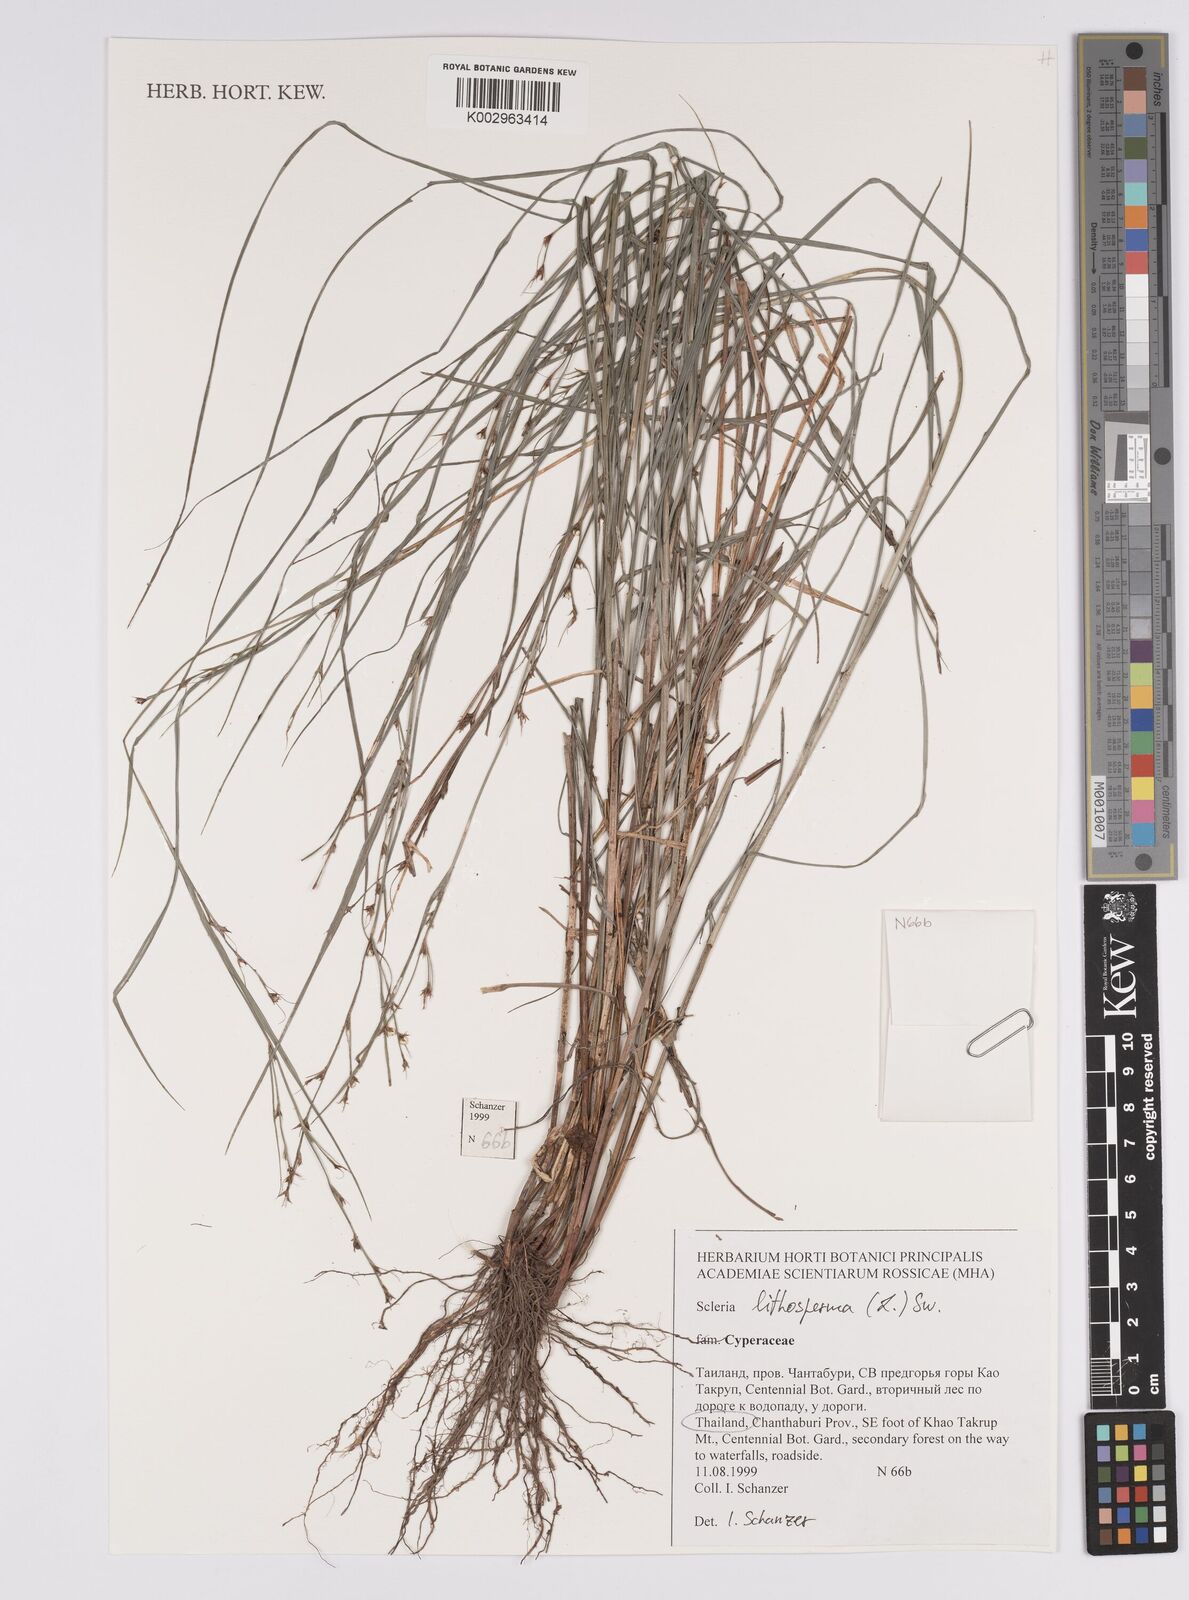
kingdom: Plantae
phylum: Tracheophyta
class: Liliopsida
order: Poales
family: Cyperaceae
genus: Scleria
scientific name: Scleria lithosperma
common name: Florida keys nut-rush
